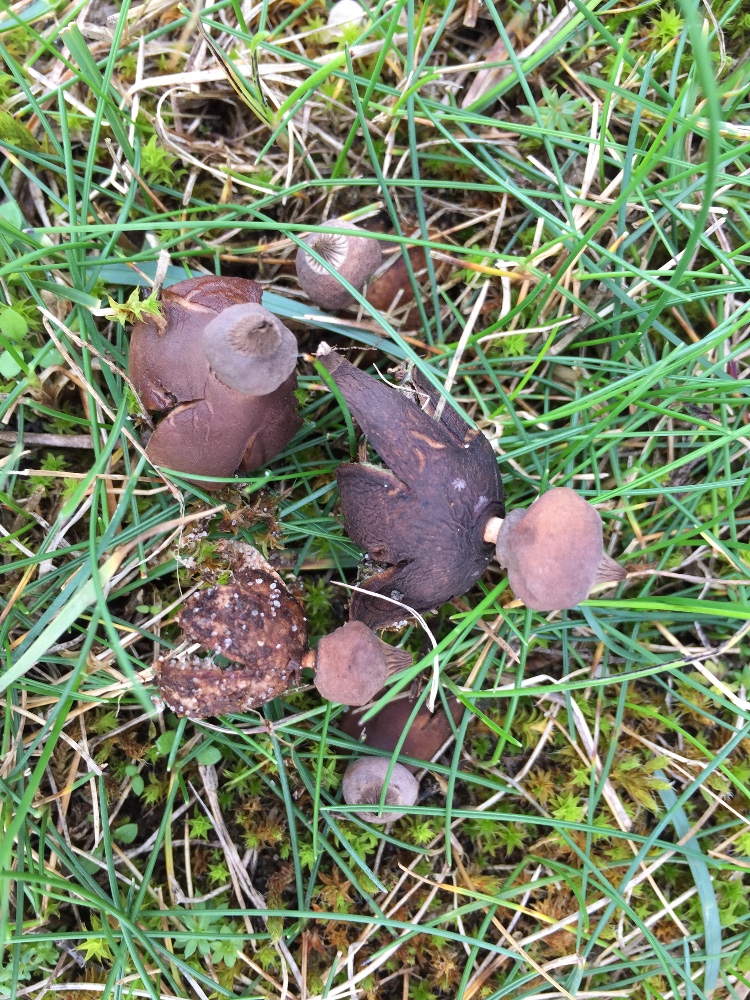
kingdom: Fungi
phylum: Basidiomycota
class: Agaricomycetes
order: Geastrales
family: Geastraceae
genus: Geastrum
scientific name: Geastrum striatum
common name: dværg-stjernebold
